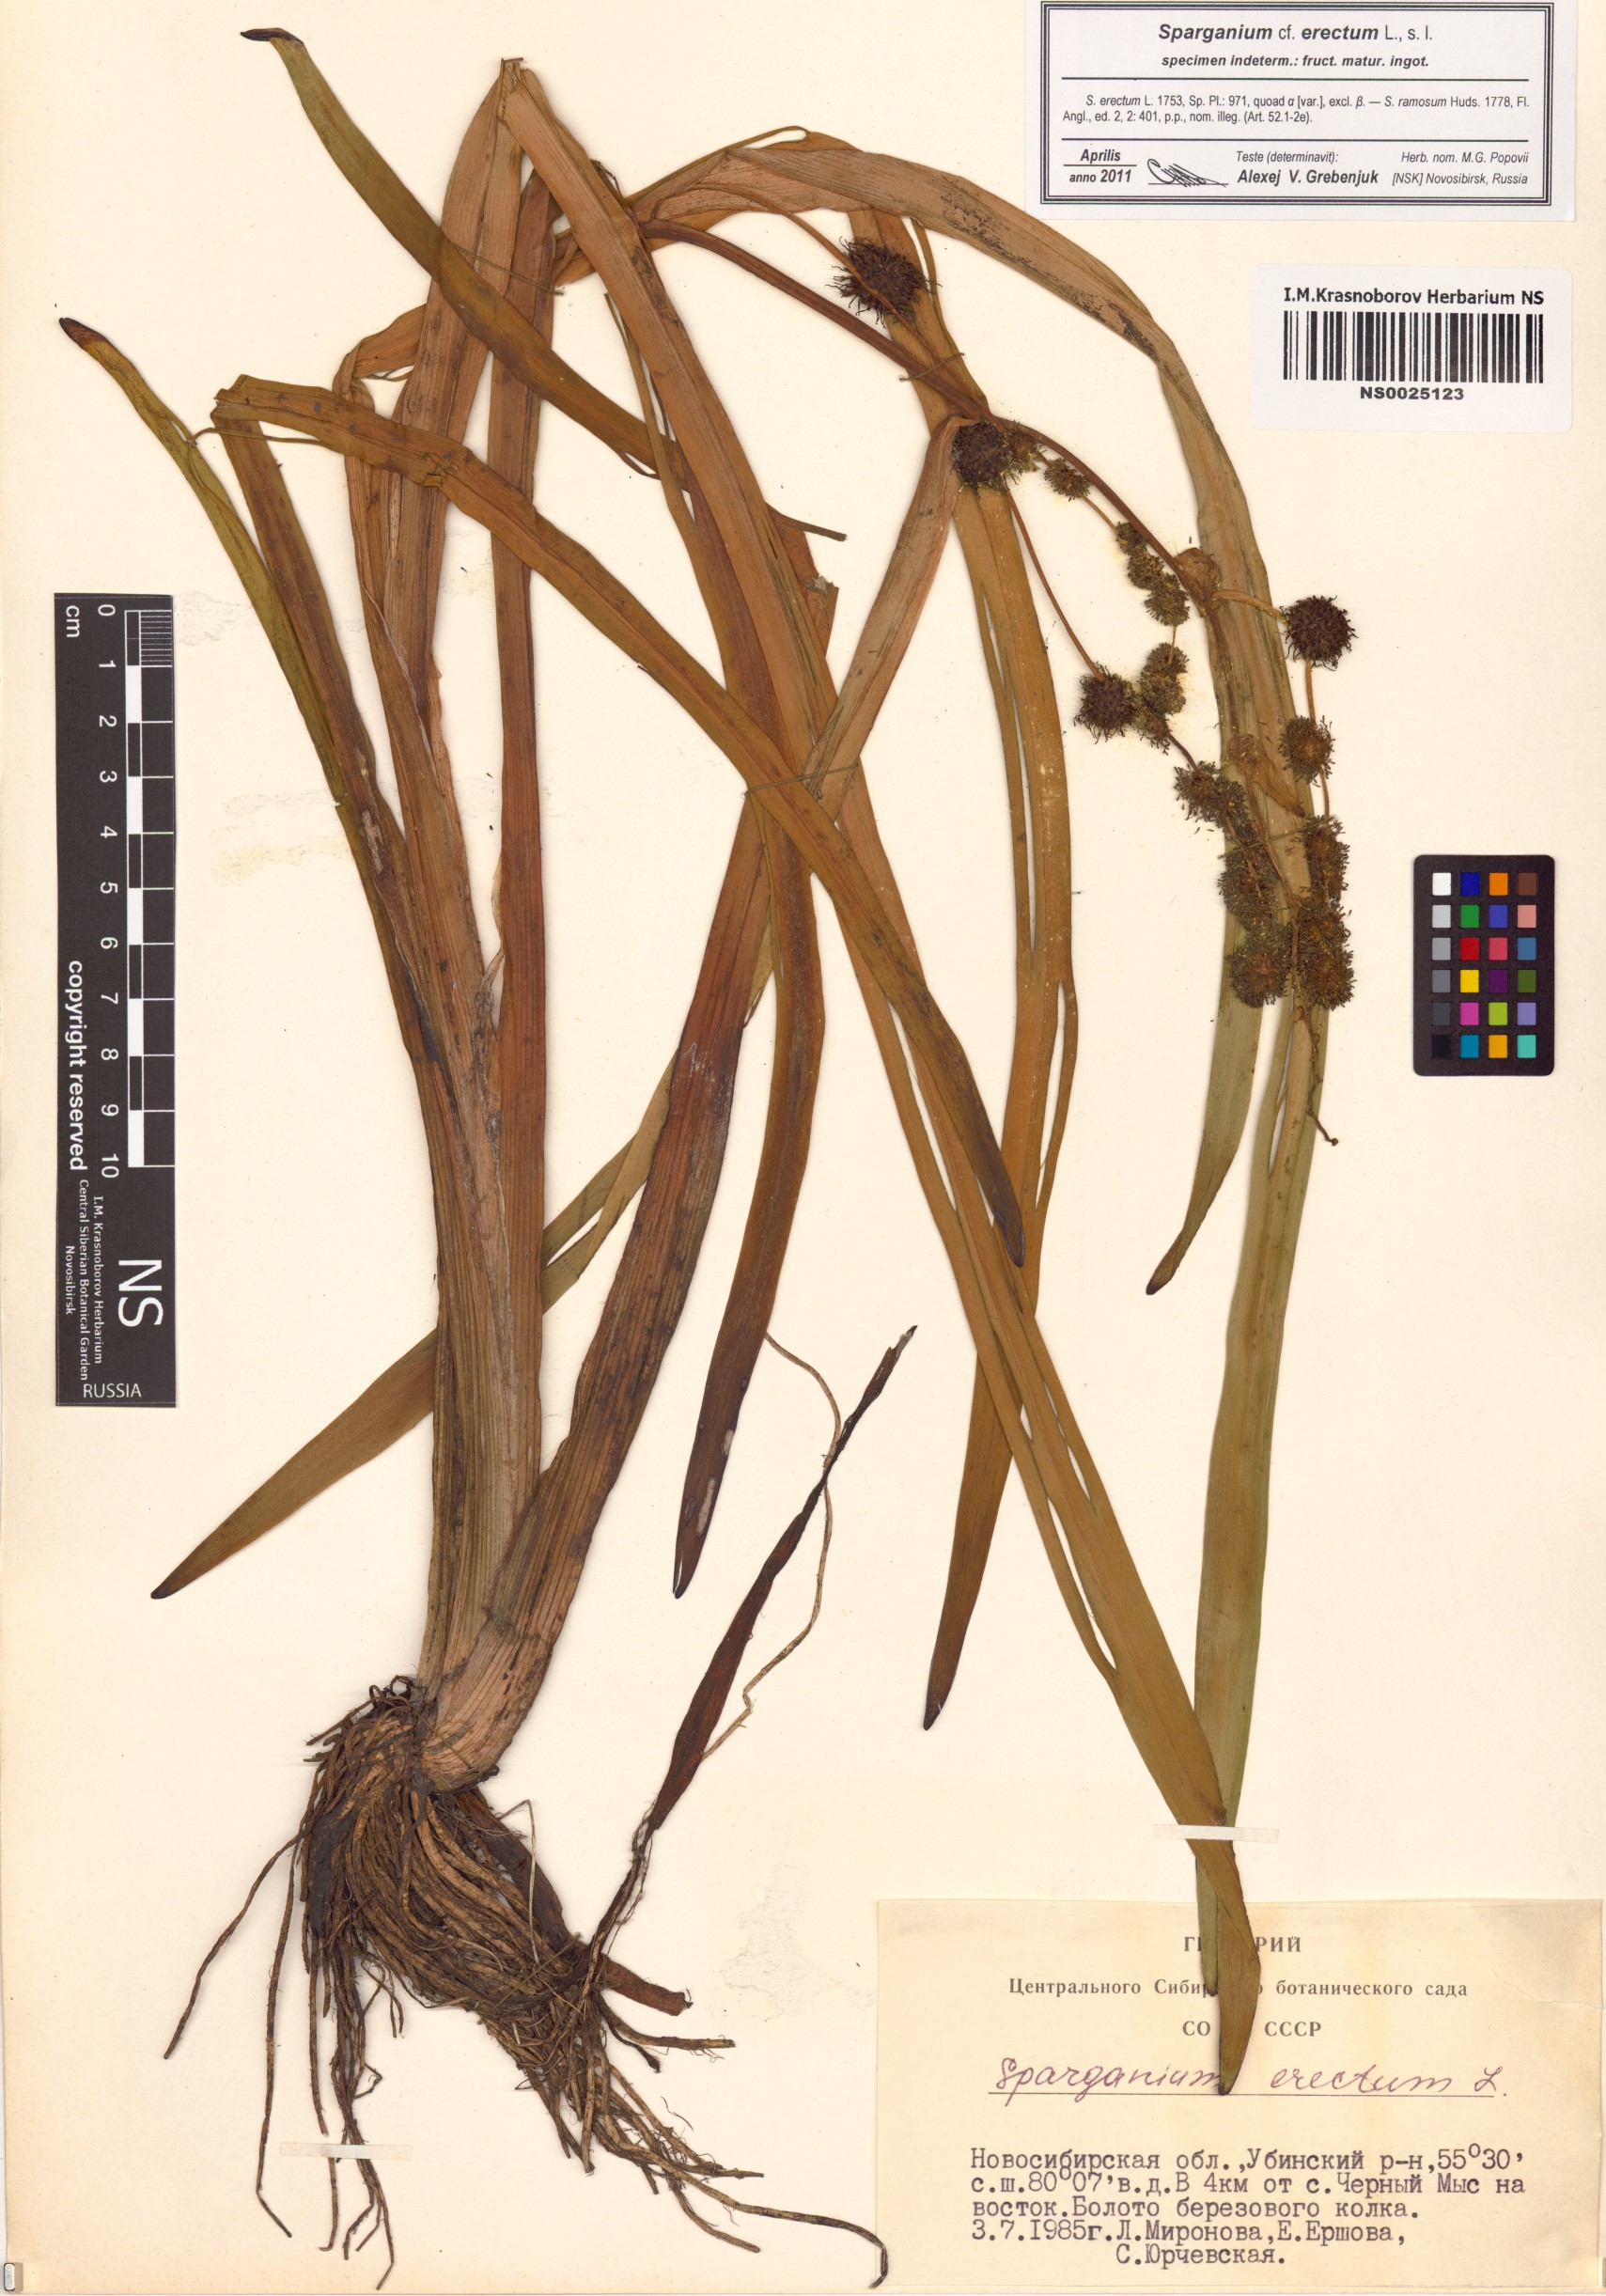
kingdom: Plantae
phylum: Tracheophyta
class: Liliopsida
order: Poales
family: Typhaceae
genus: Sparganium
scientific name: Sparganium erectum
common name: Branched bur-reed
